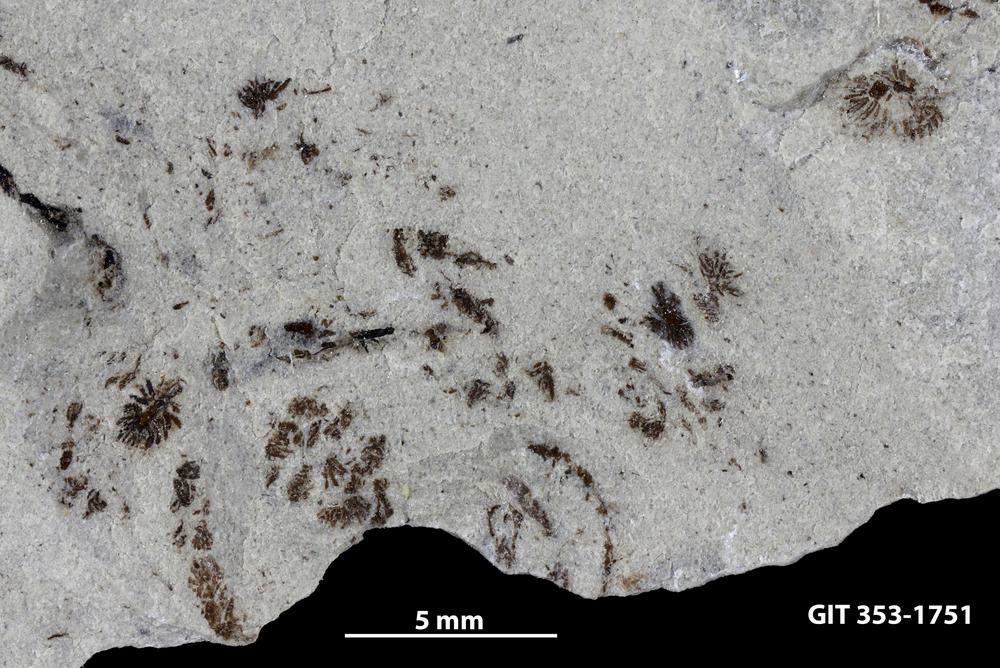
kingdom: Plantae
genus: Leveilleites
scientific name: Leveilleites hartnageli
